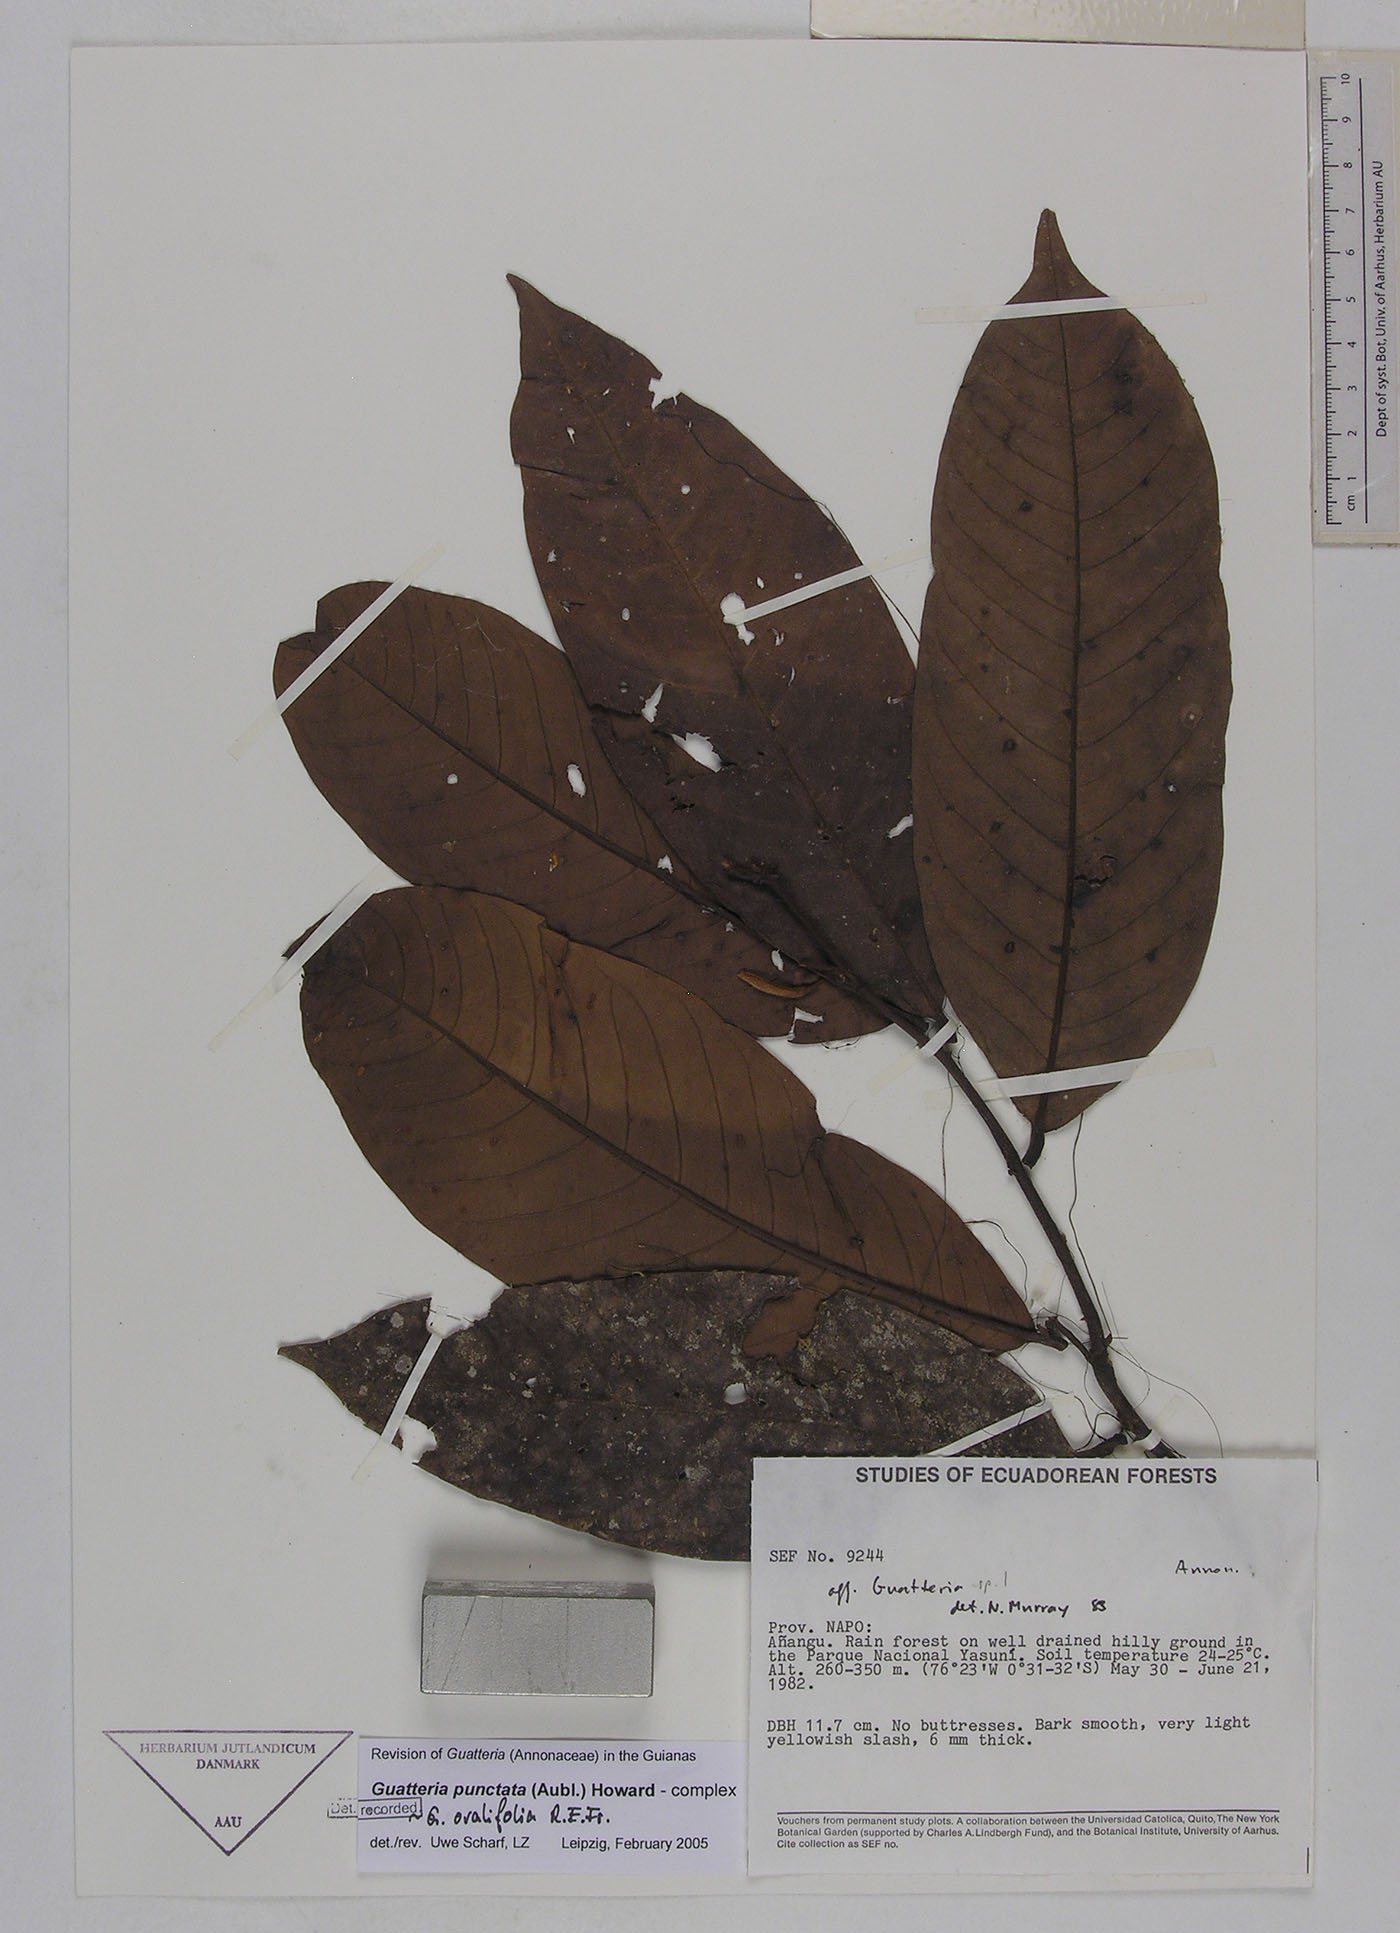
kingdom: Plantae
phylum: Tracheophyta
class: Magnoliopsida
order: Magnoliales
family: Annonaceae
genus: Guatteria
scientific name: Guatteria punctata
